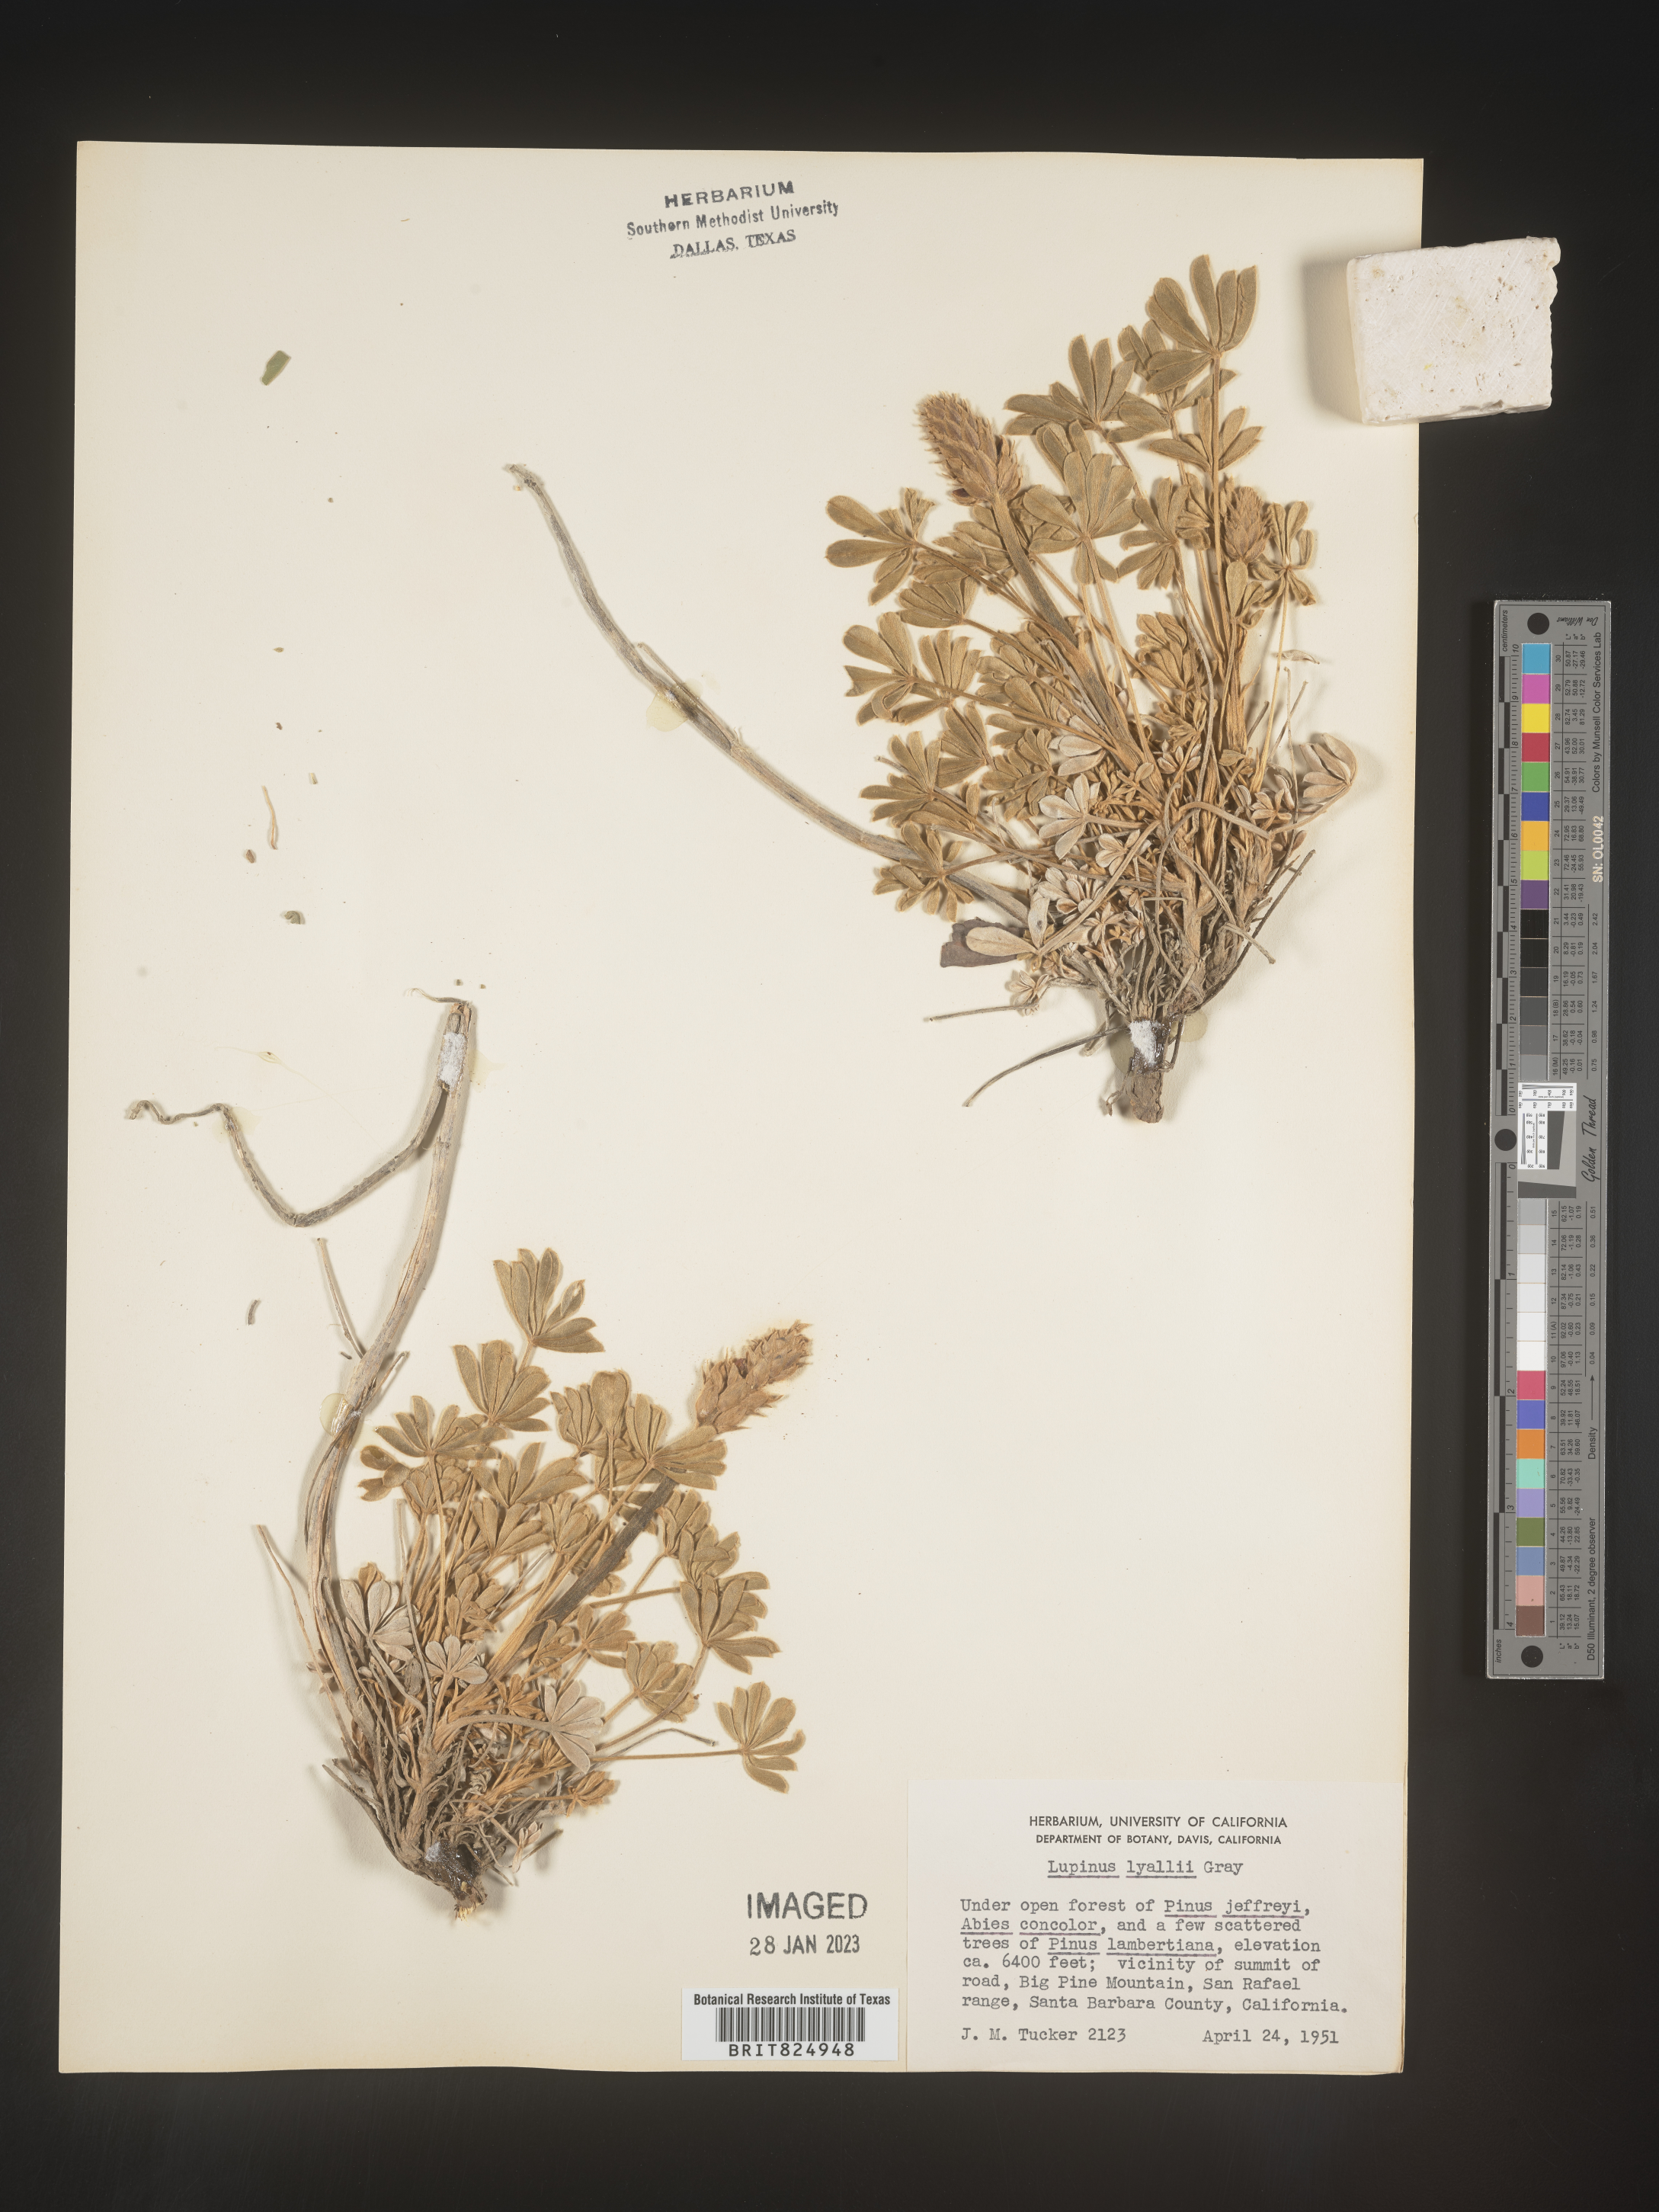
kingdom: Plantae
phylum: Tracheophyta
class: Magnoliopsida
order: Fabales
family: Fabaceae
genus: Lupinus
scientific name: Lupinus
